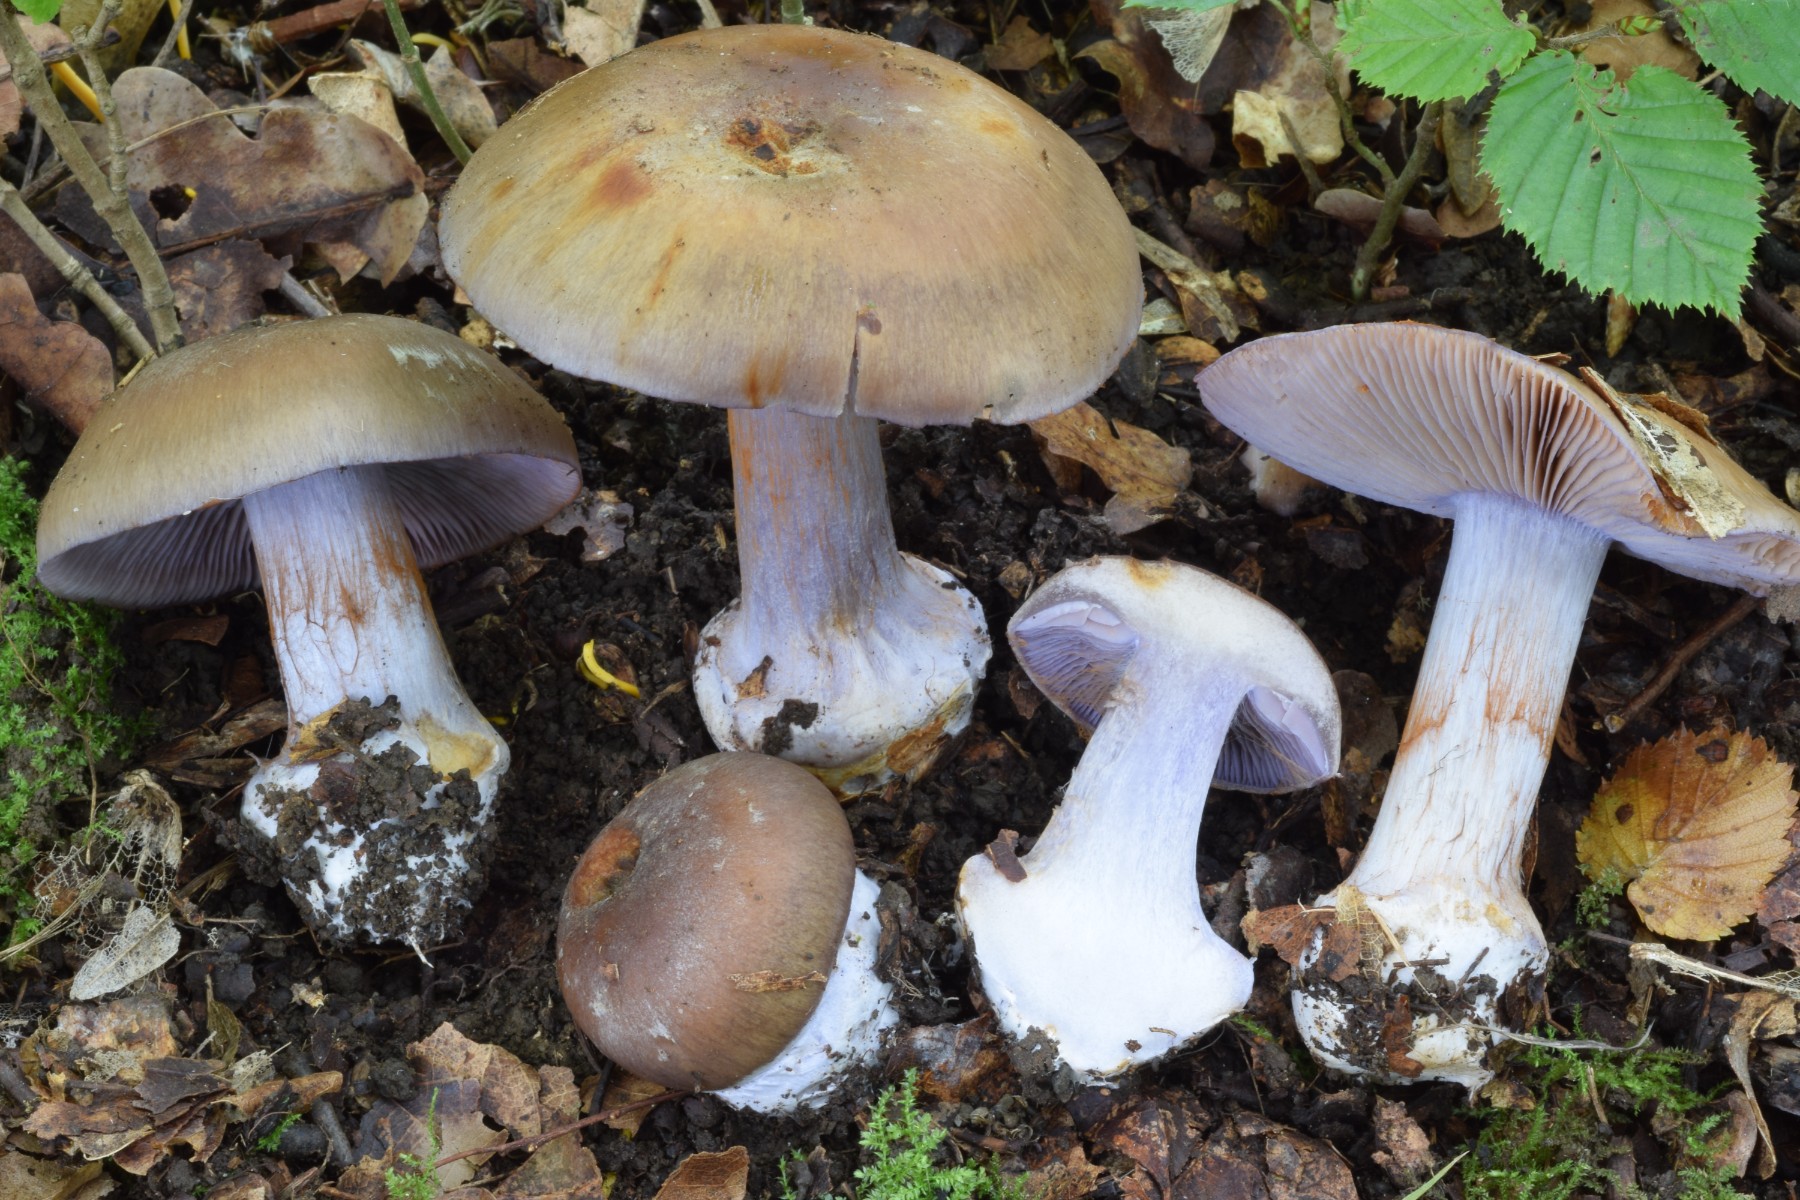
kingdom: Fungi
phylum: Basidiomycota
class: Agaricomycetes
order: Agaricales
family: Cortinariaceae
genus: Phlegmacium
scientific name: Phlegmacium viridocoeruleum
